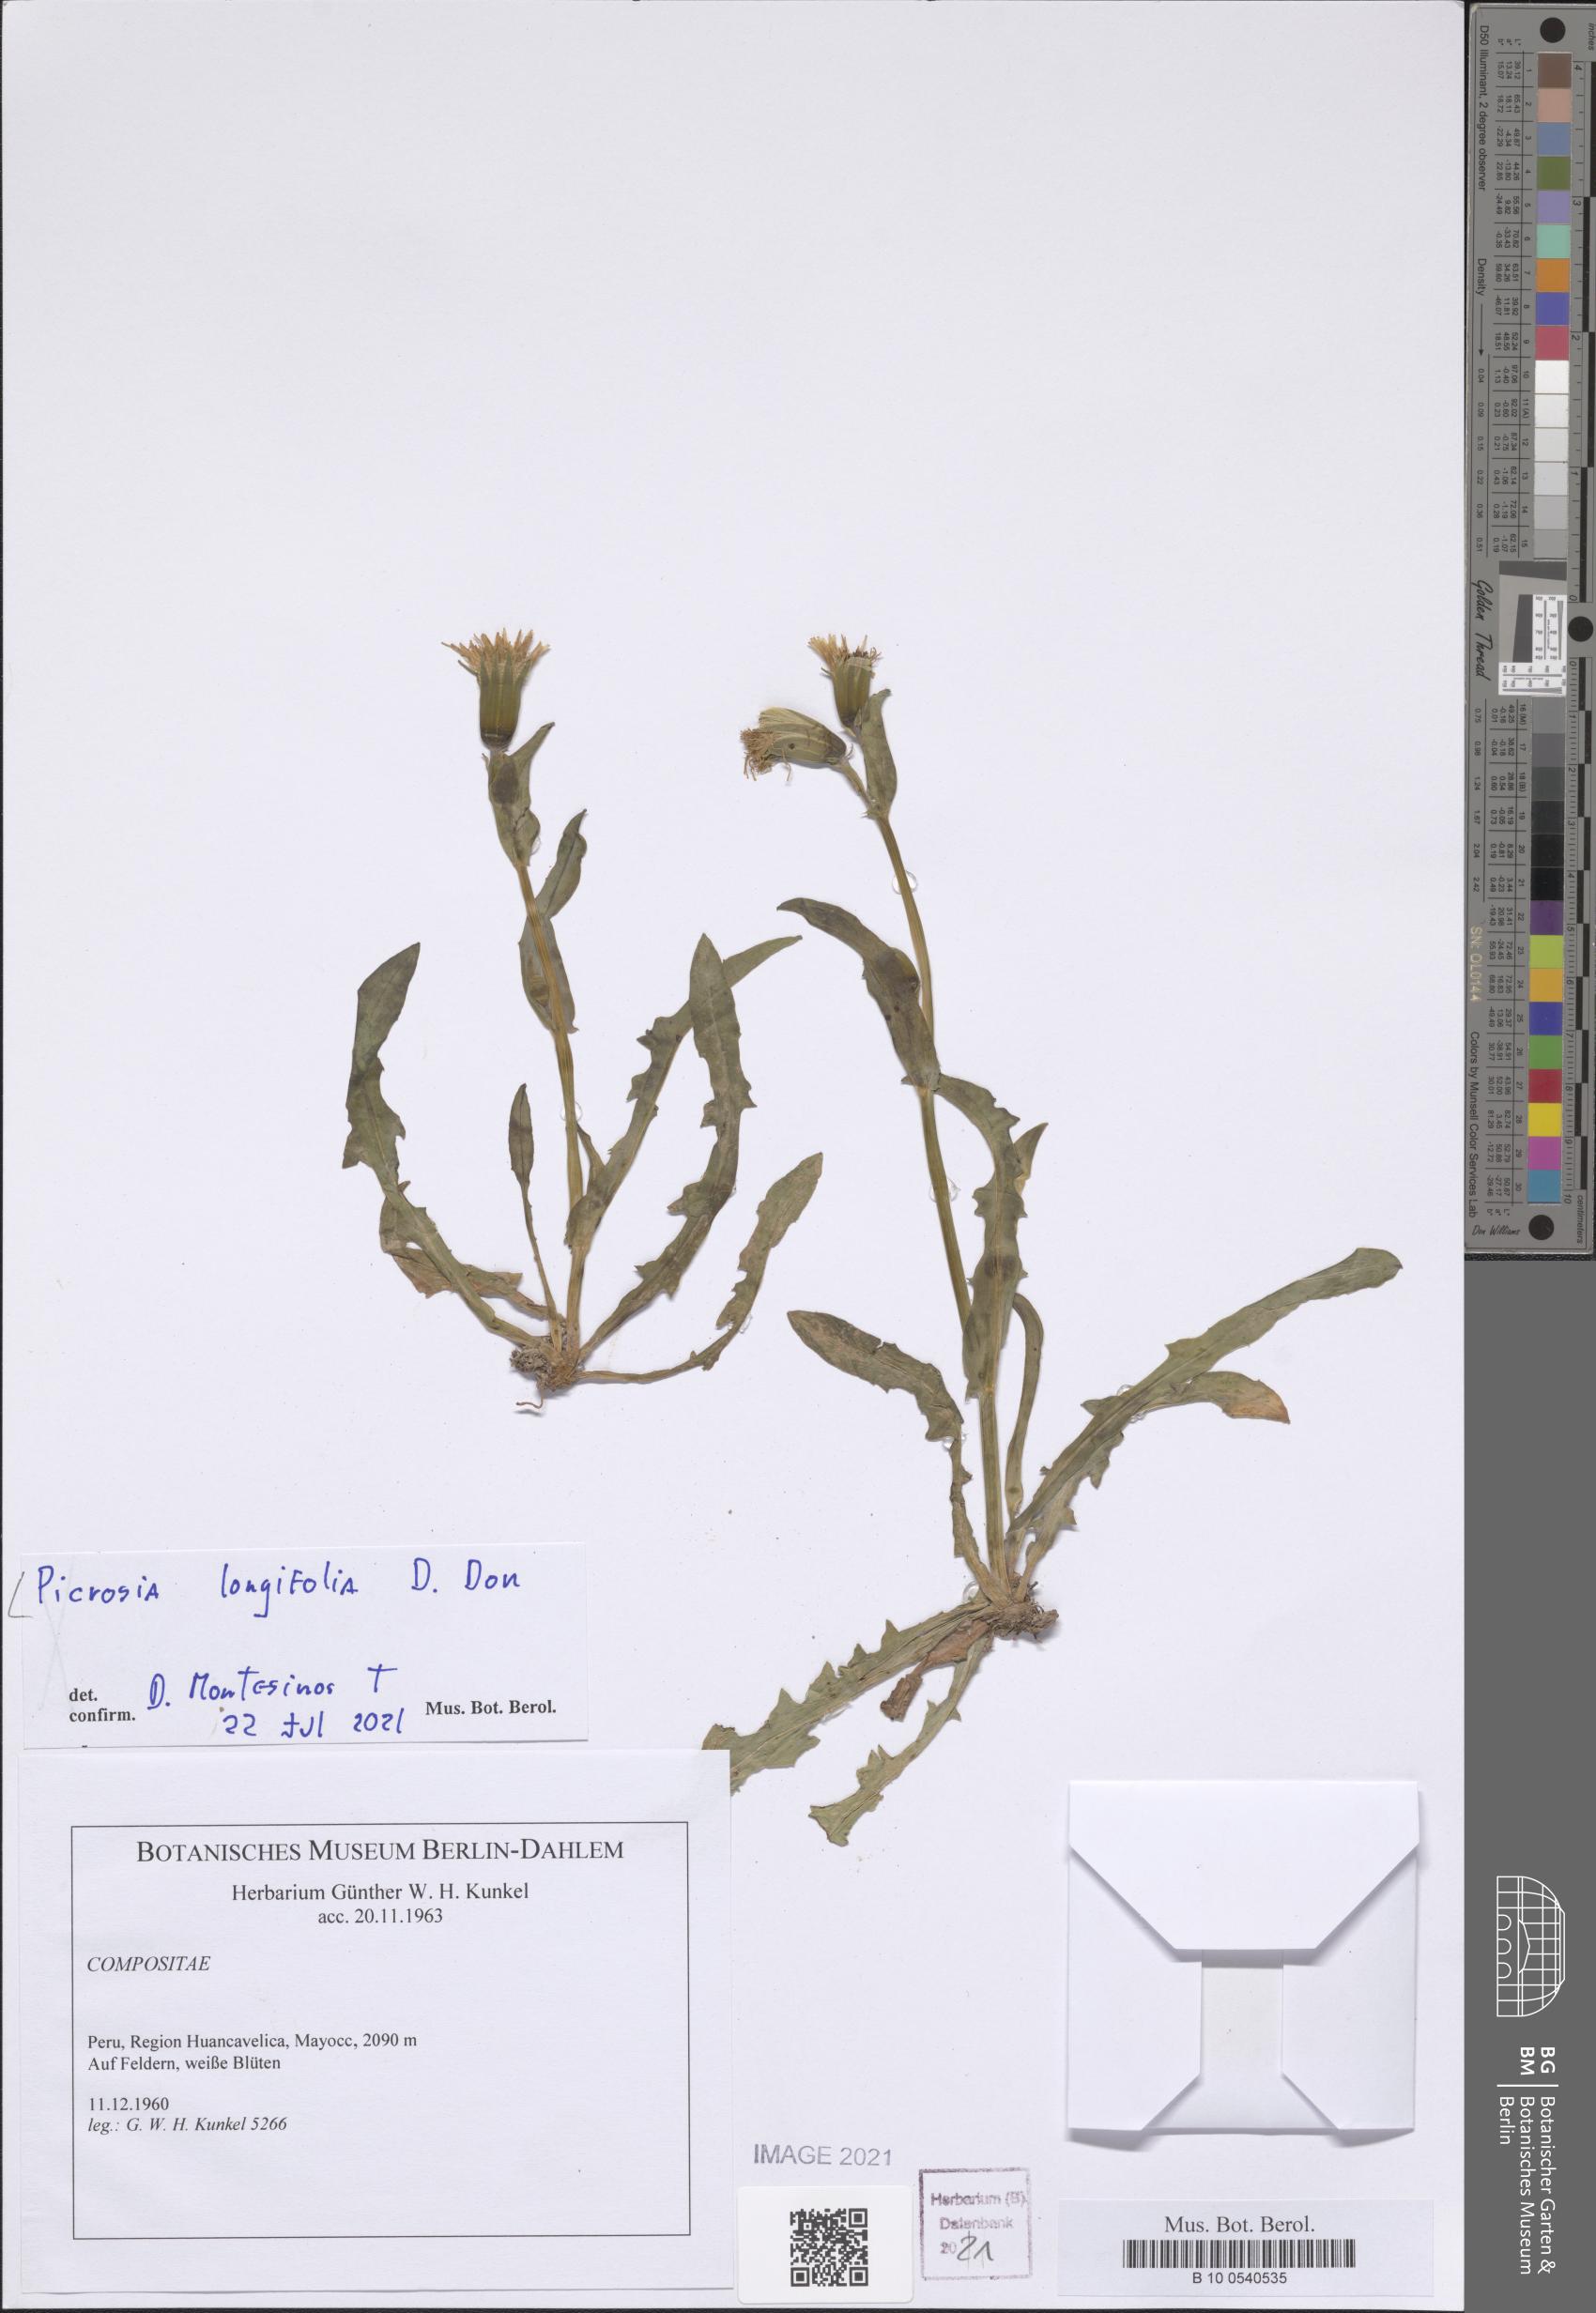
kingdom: Plantae
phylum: Tracheophyta
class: Magnoliopsida
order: Asterales
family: Asteraceae
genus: Picrosia
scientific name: Picrosia longifolia
